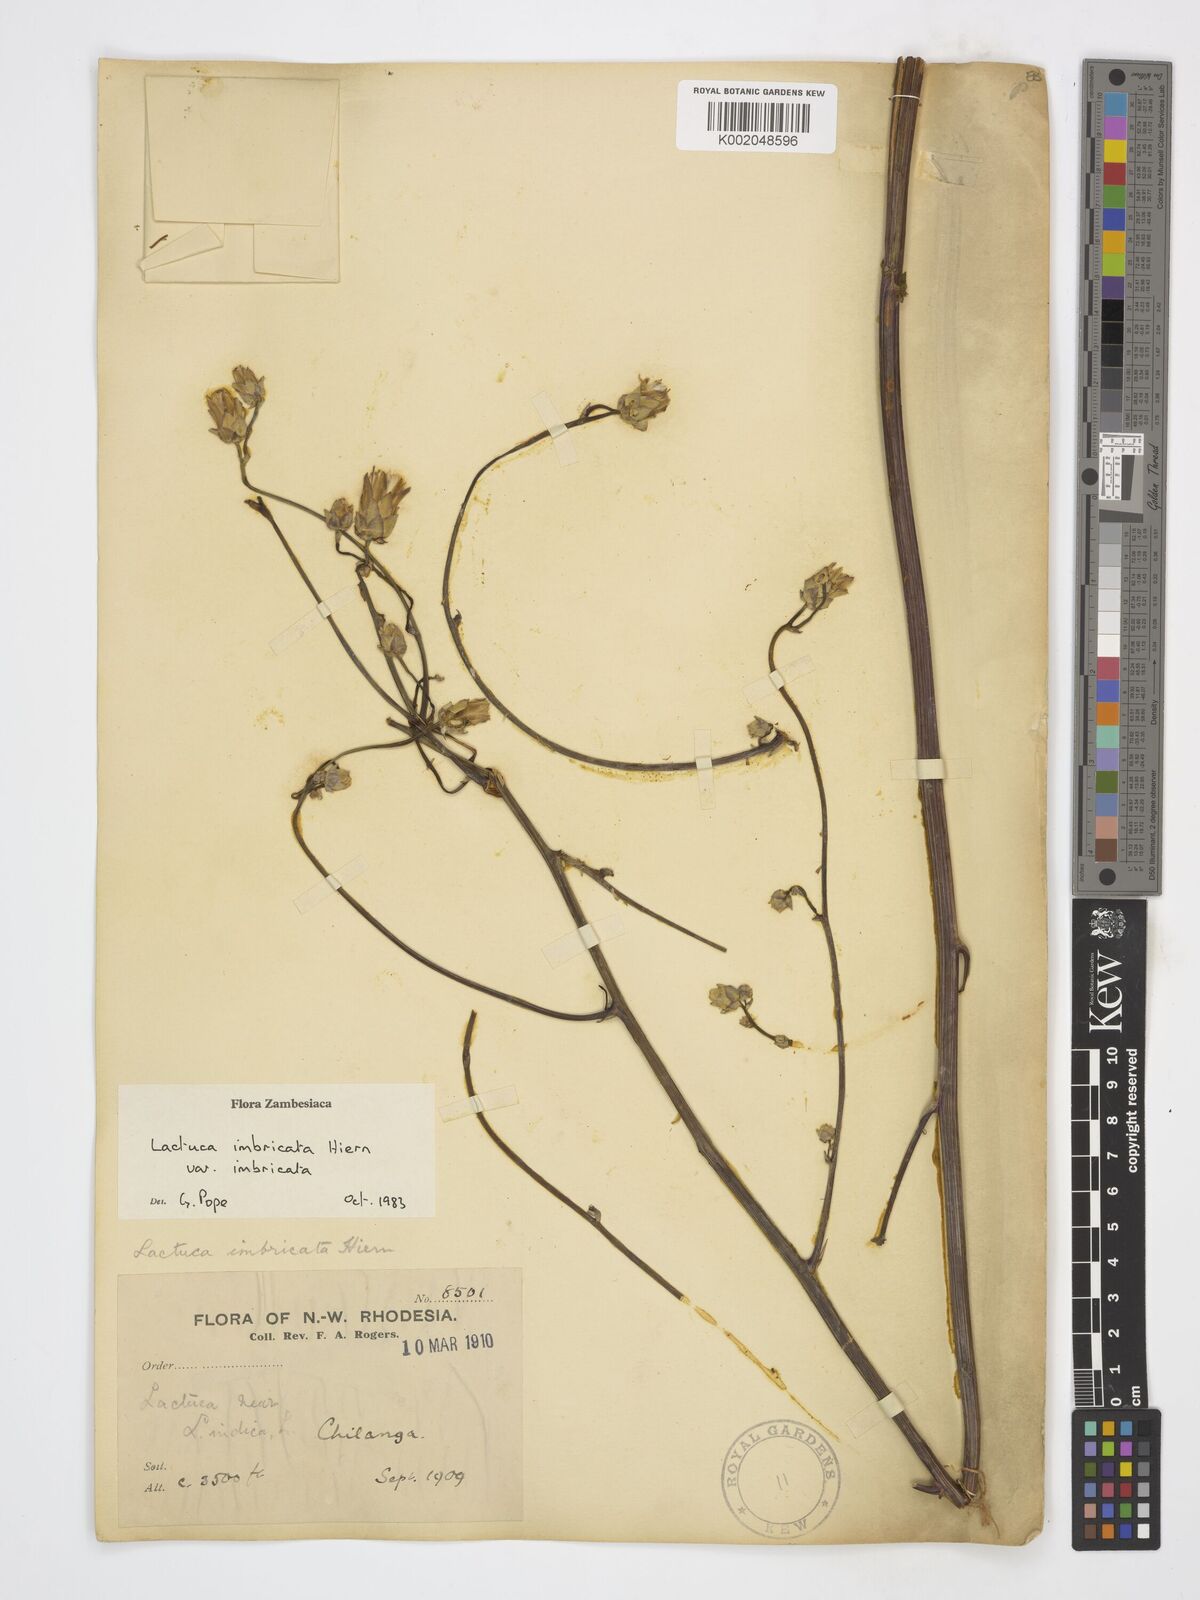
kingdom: Plantae
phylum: Tracheophyta
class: Magnoliopsida
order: Asterales
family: Asteraceae
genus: Lactuca
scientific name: Lactuca imbricata
